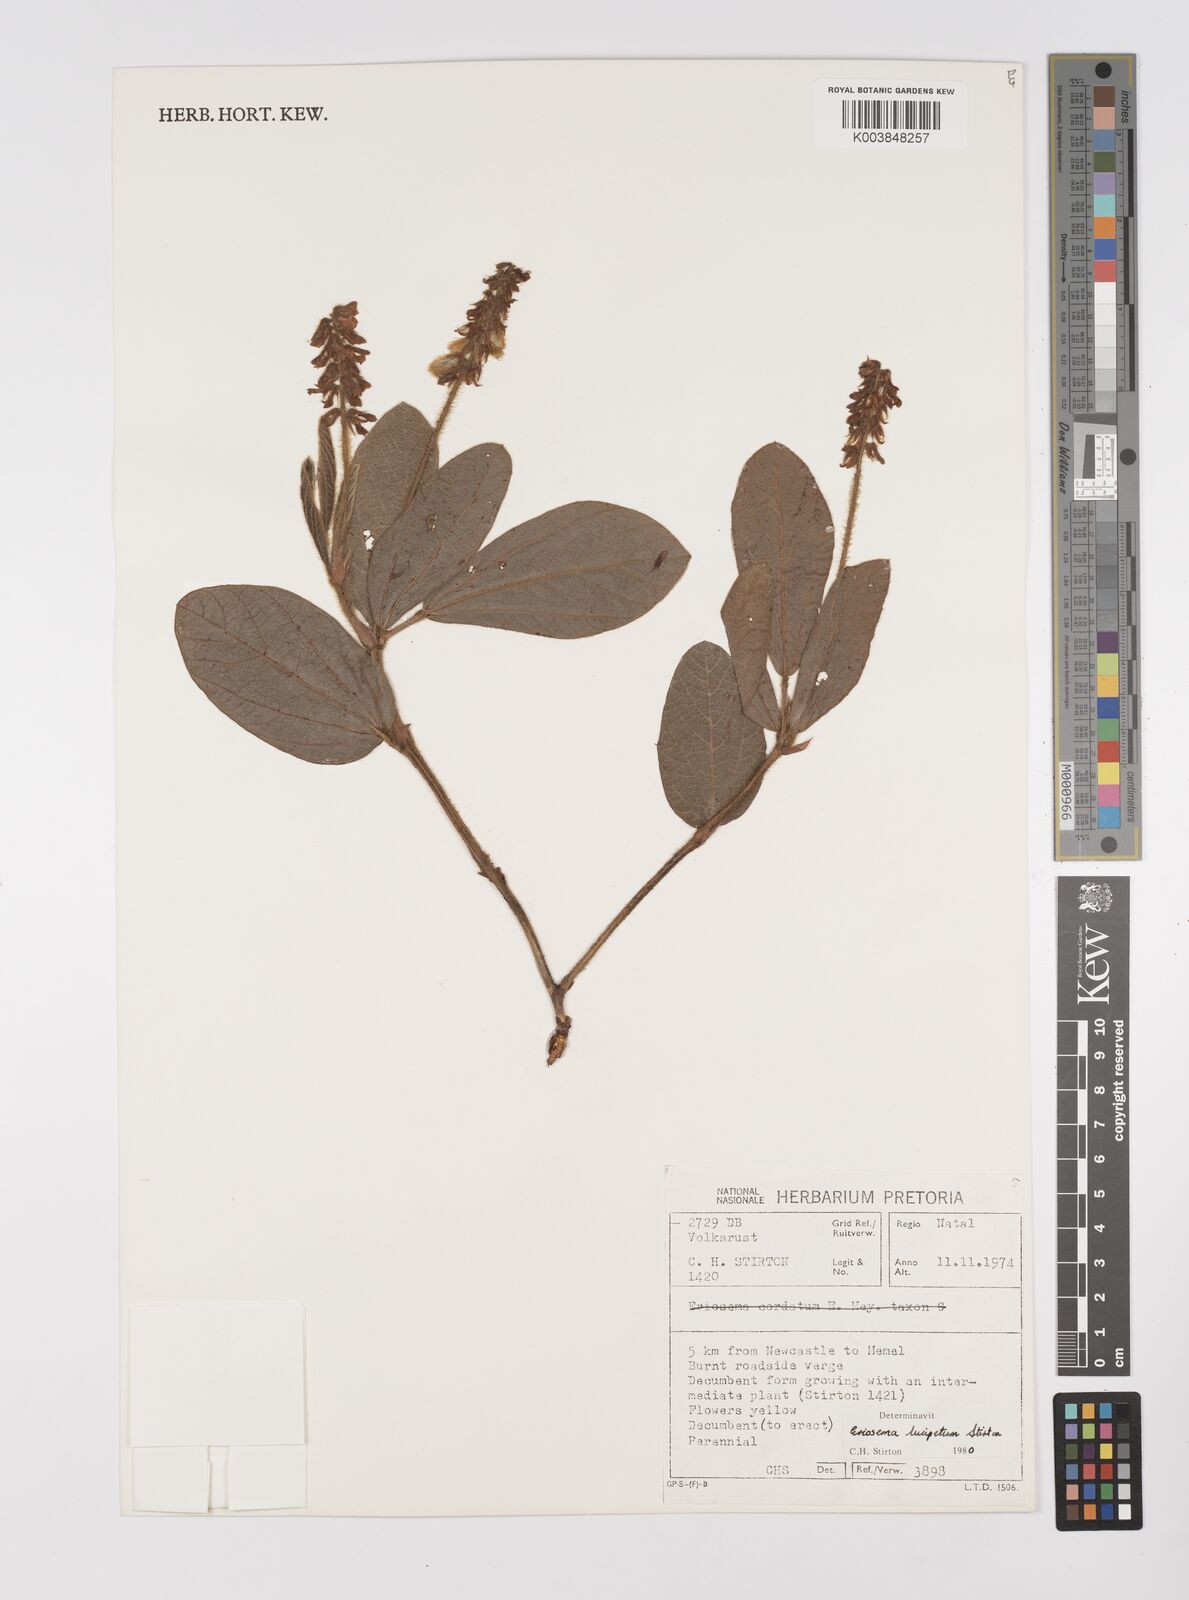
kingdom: Plantae
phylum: Tracheophyta
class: Magnoliopsida
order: Fabales
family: Fabaceae
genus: Eriosema
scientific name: Eriosema lucipetum
